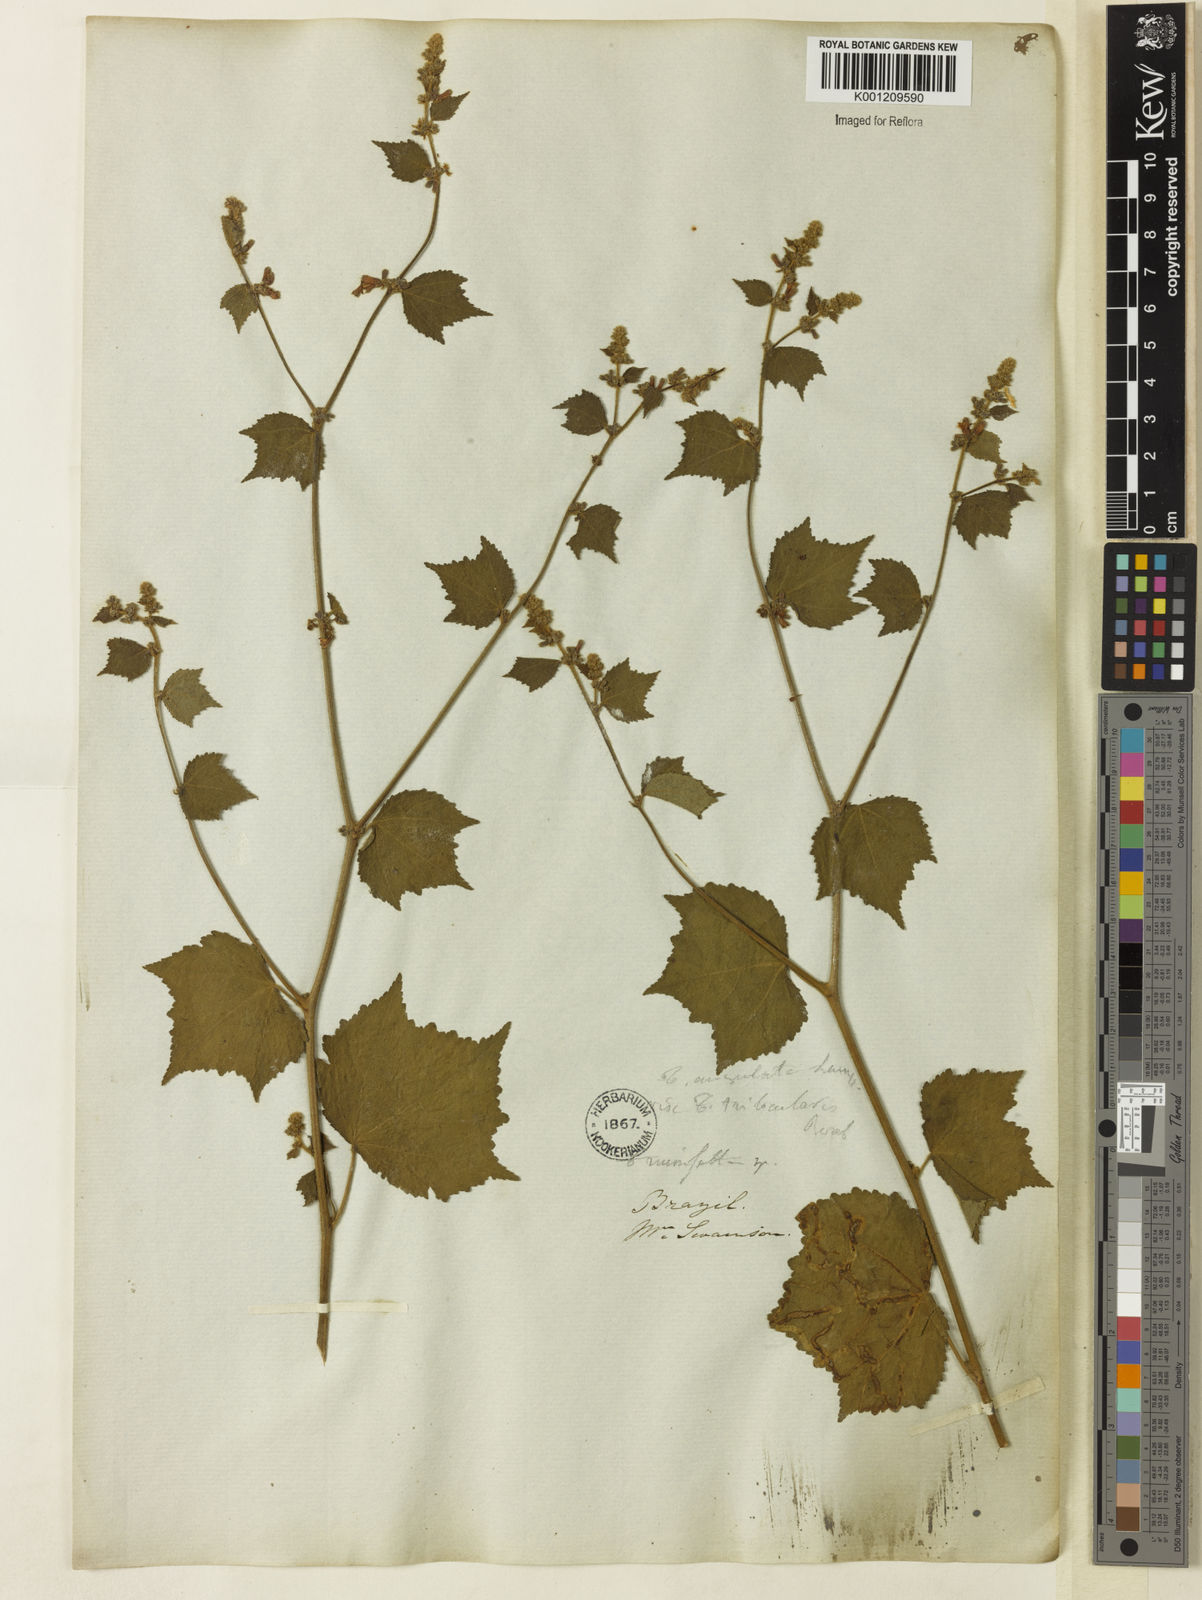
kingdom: Plantae
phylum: Tracheophyta
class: Magnoliopsida
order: Malvales
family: Malvaceae
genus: Triumfetta
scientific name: Triumfetta rhomboidea
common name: Diamond burbark
